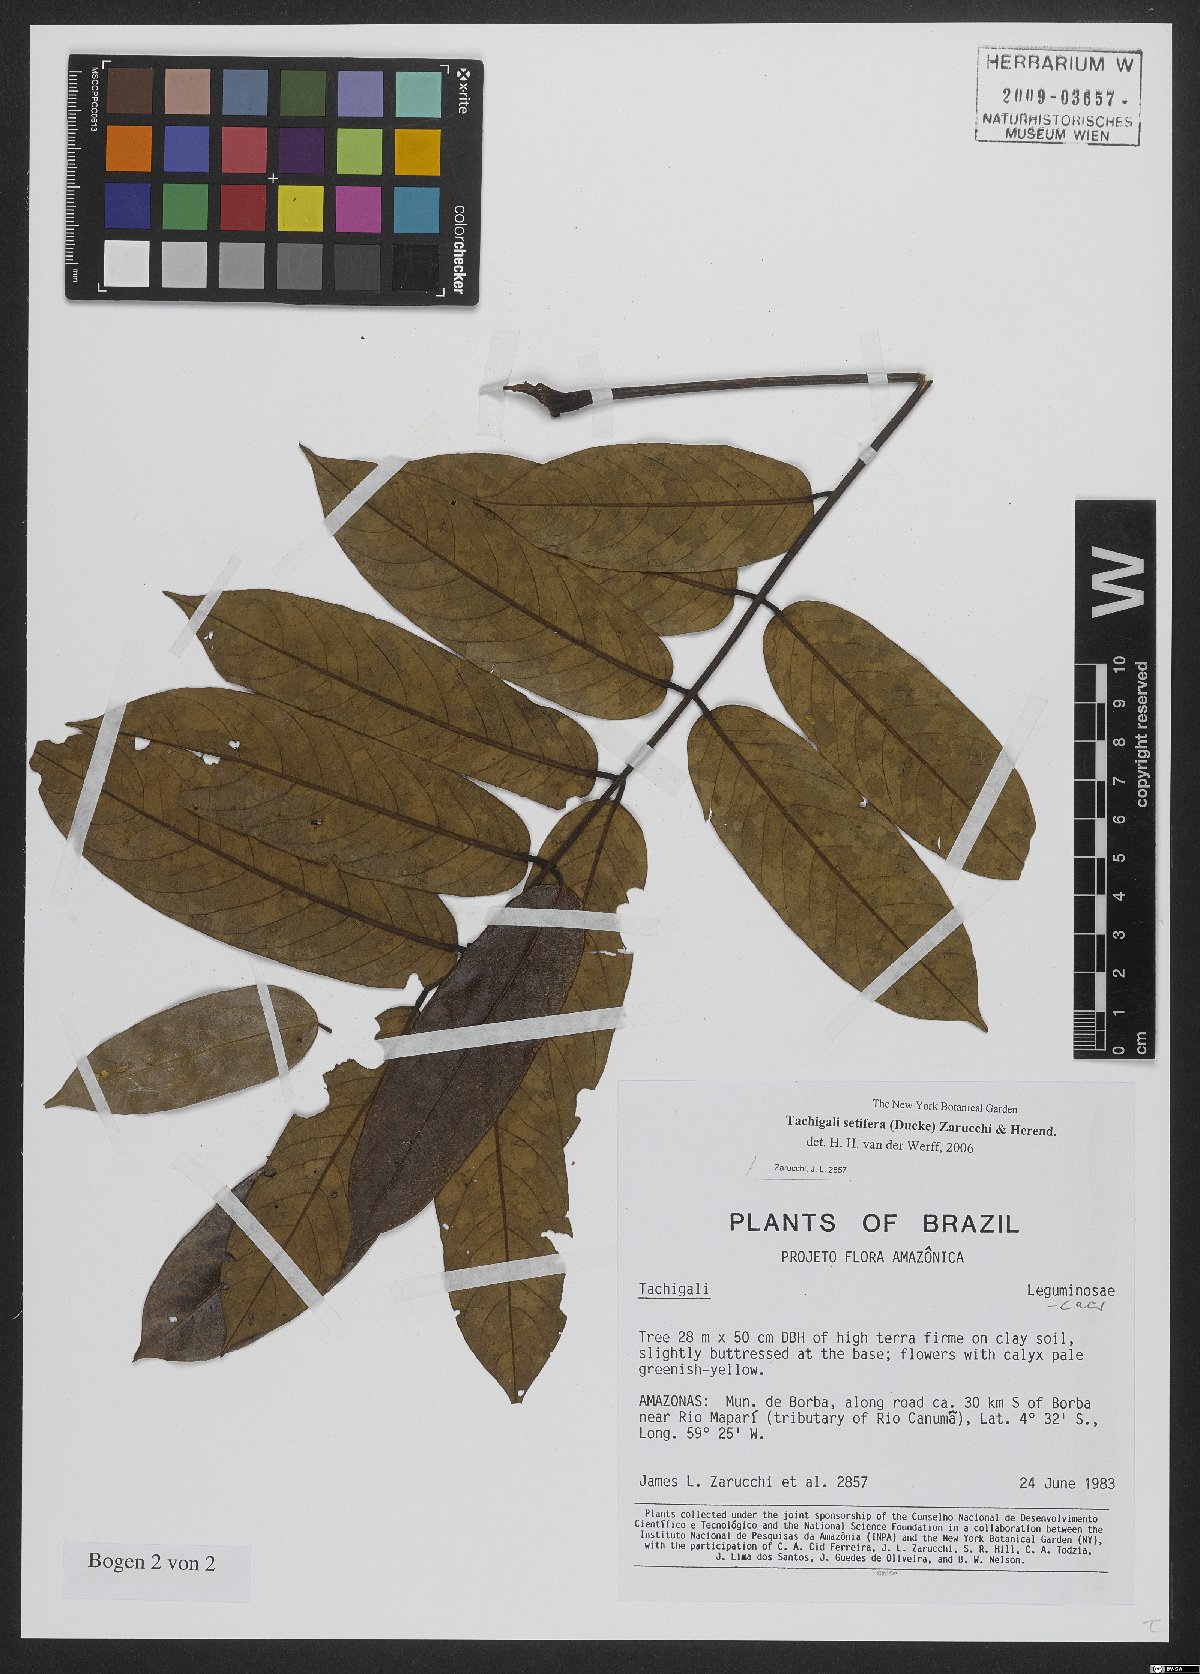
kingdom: Plantae
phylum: Tracheophyta
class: Magnoliopsida
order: Fabales
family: Fabaceae
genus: Tachigali
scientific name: Tachigali setifera
